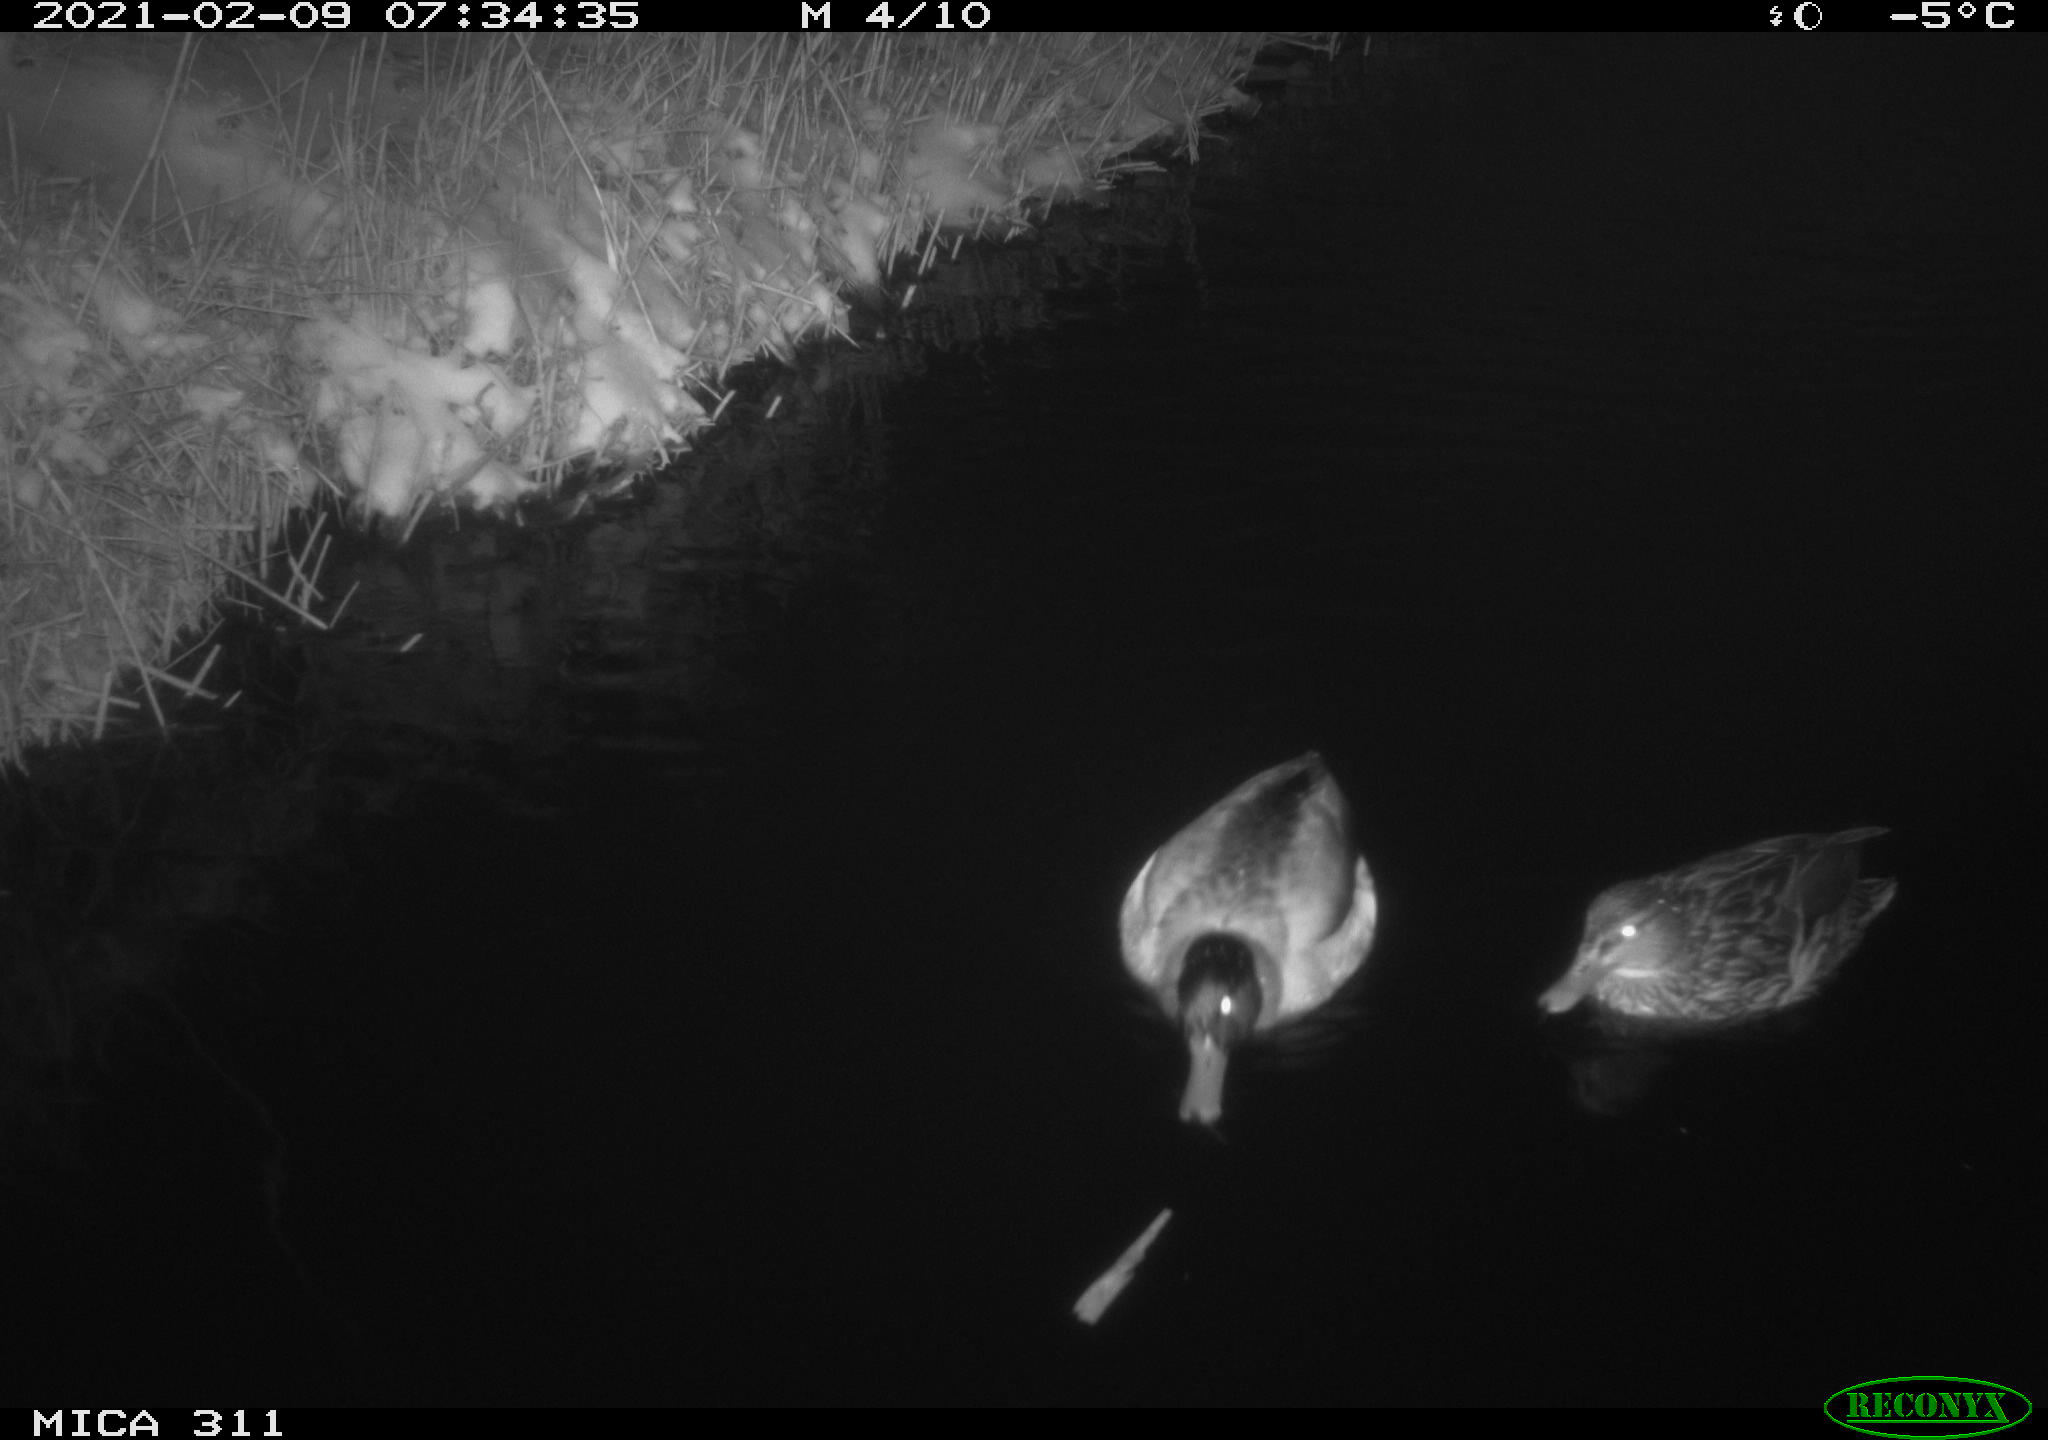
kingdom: Animalia
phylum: Chordata
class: Aves
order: Anseriformes
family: Anatidae
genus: Anas
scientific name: Anas platyrhynchos
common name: Mallard
